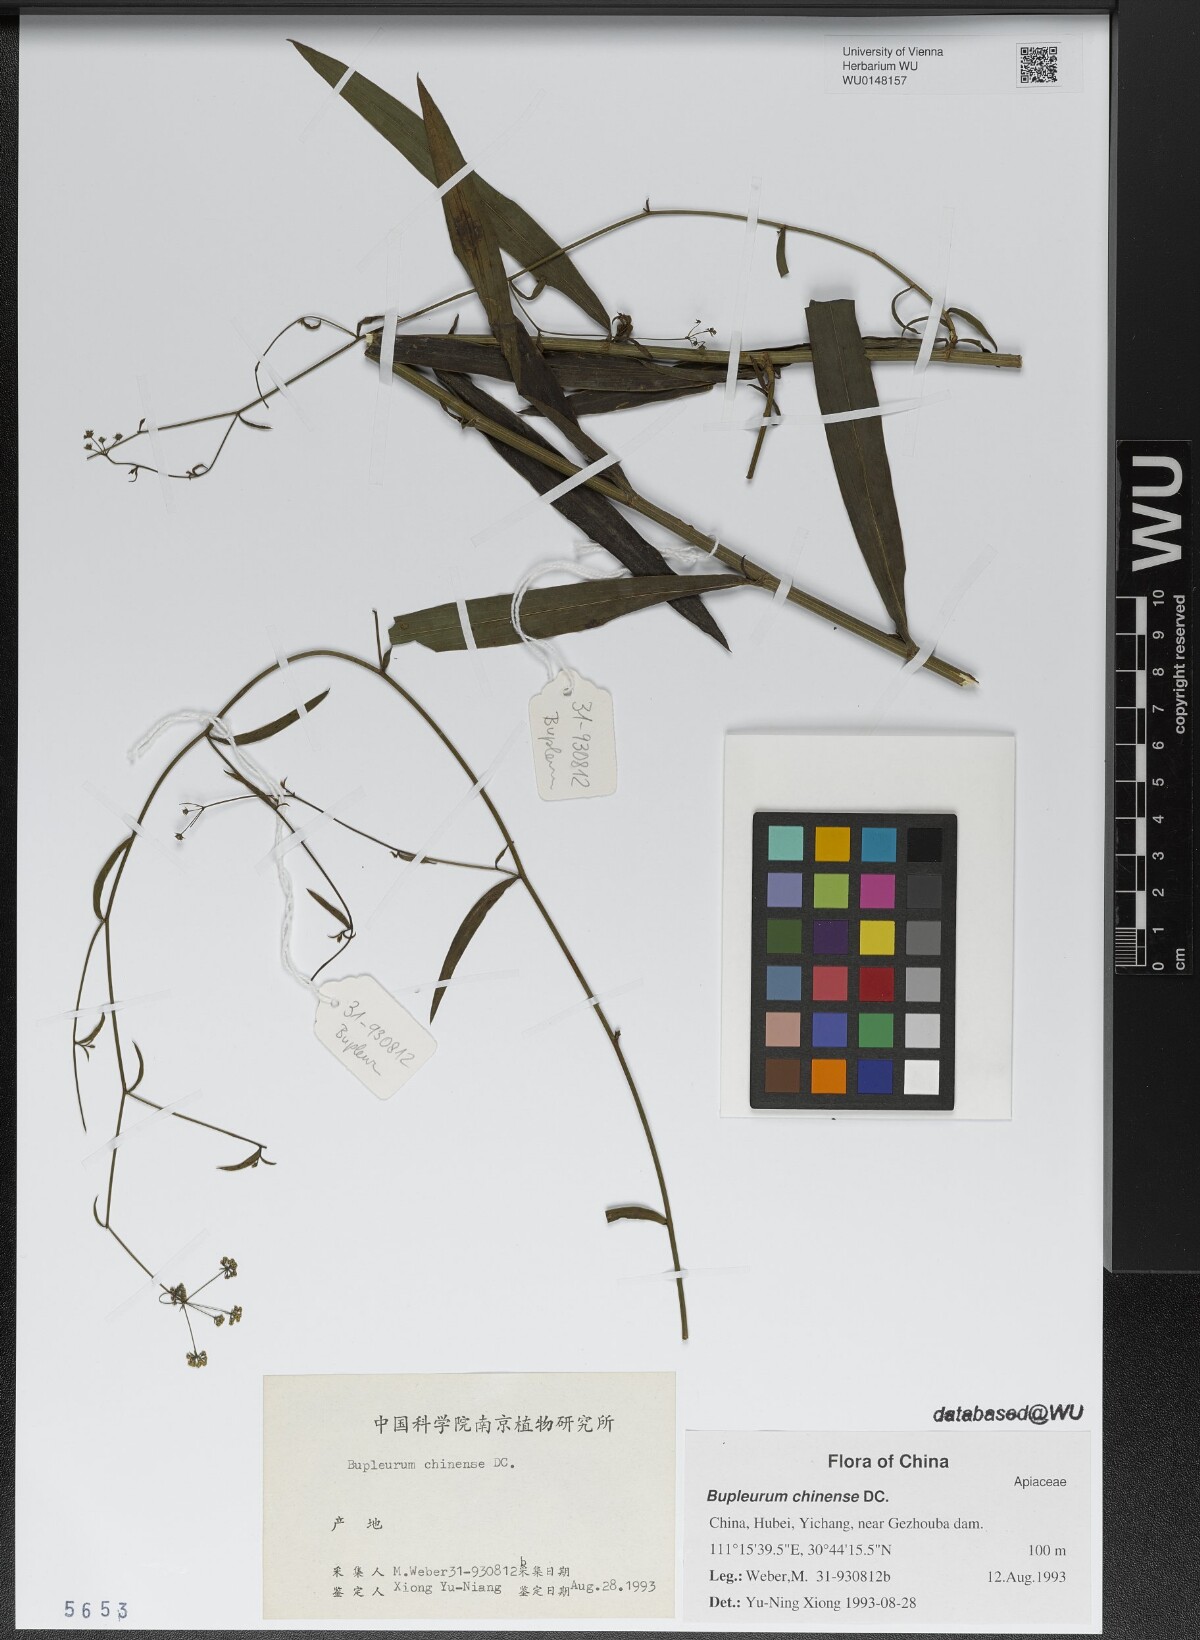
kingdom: Plantae
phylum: Tracheophyta
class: Magnoliopsida
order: Apiales
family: Apiaceae
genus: Bupleurum
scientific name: Bupleurum chinense
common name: Bupleurum
